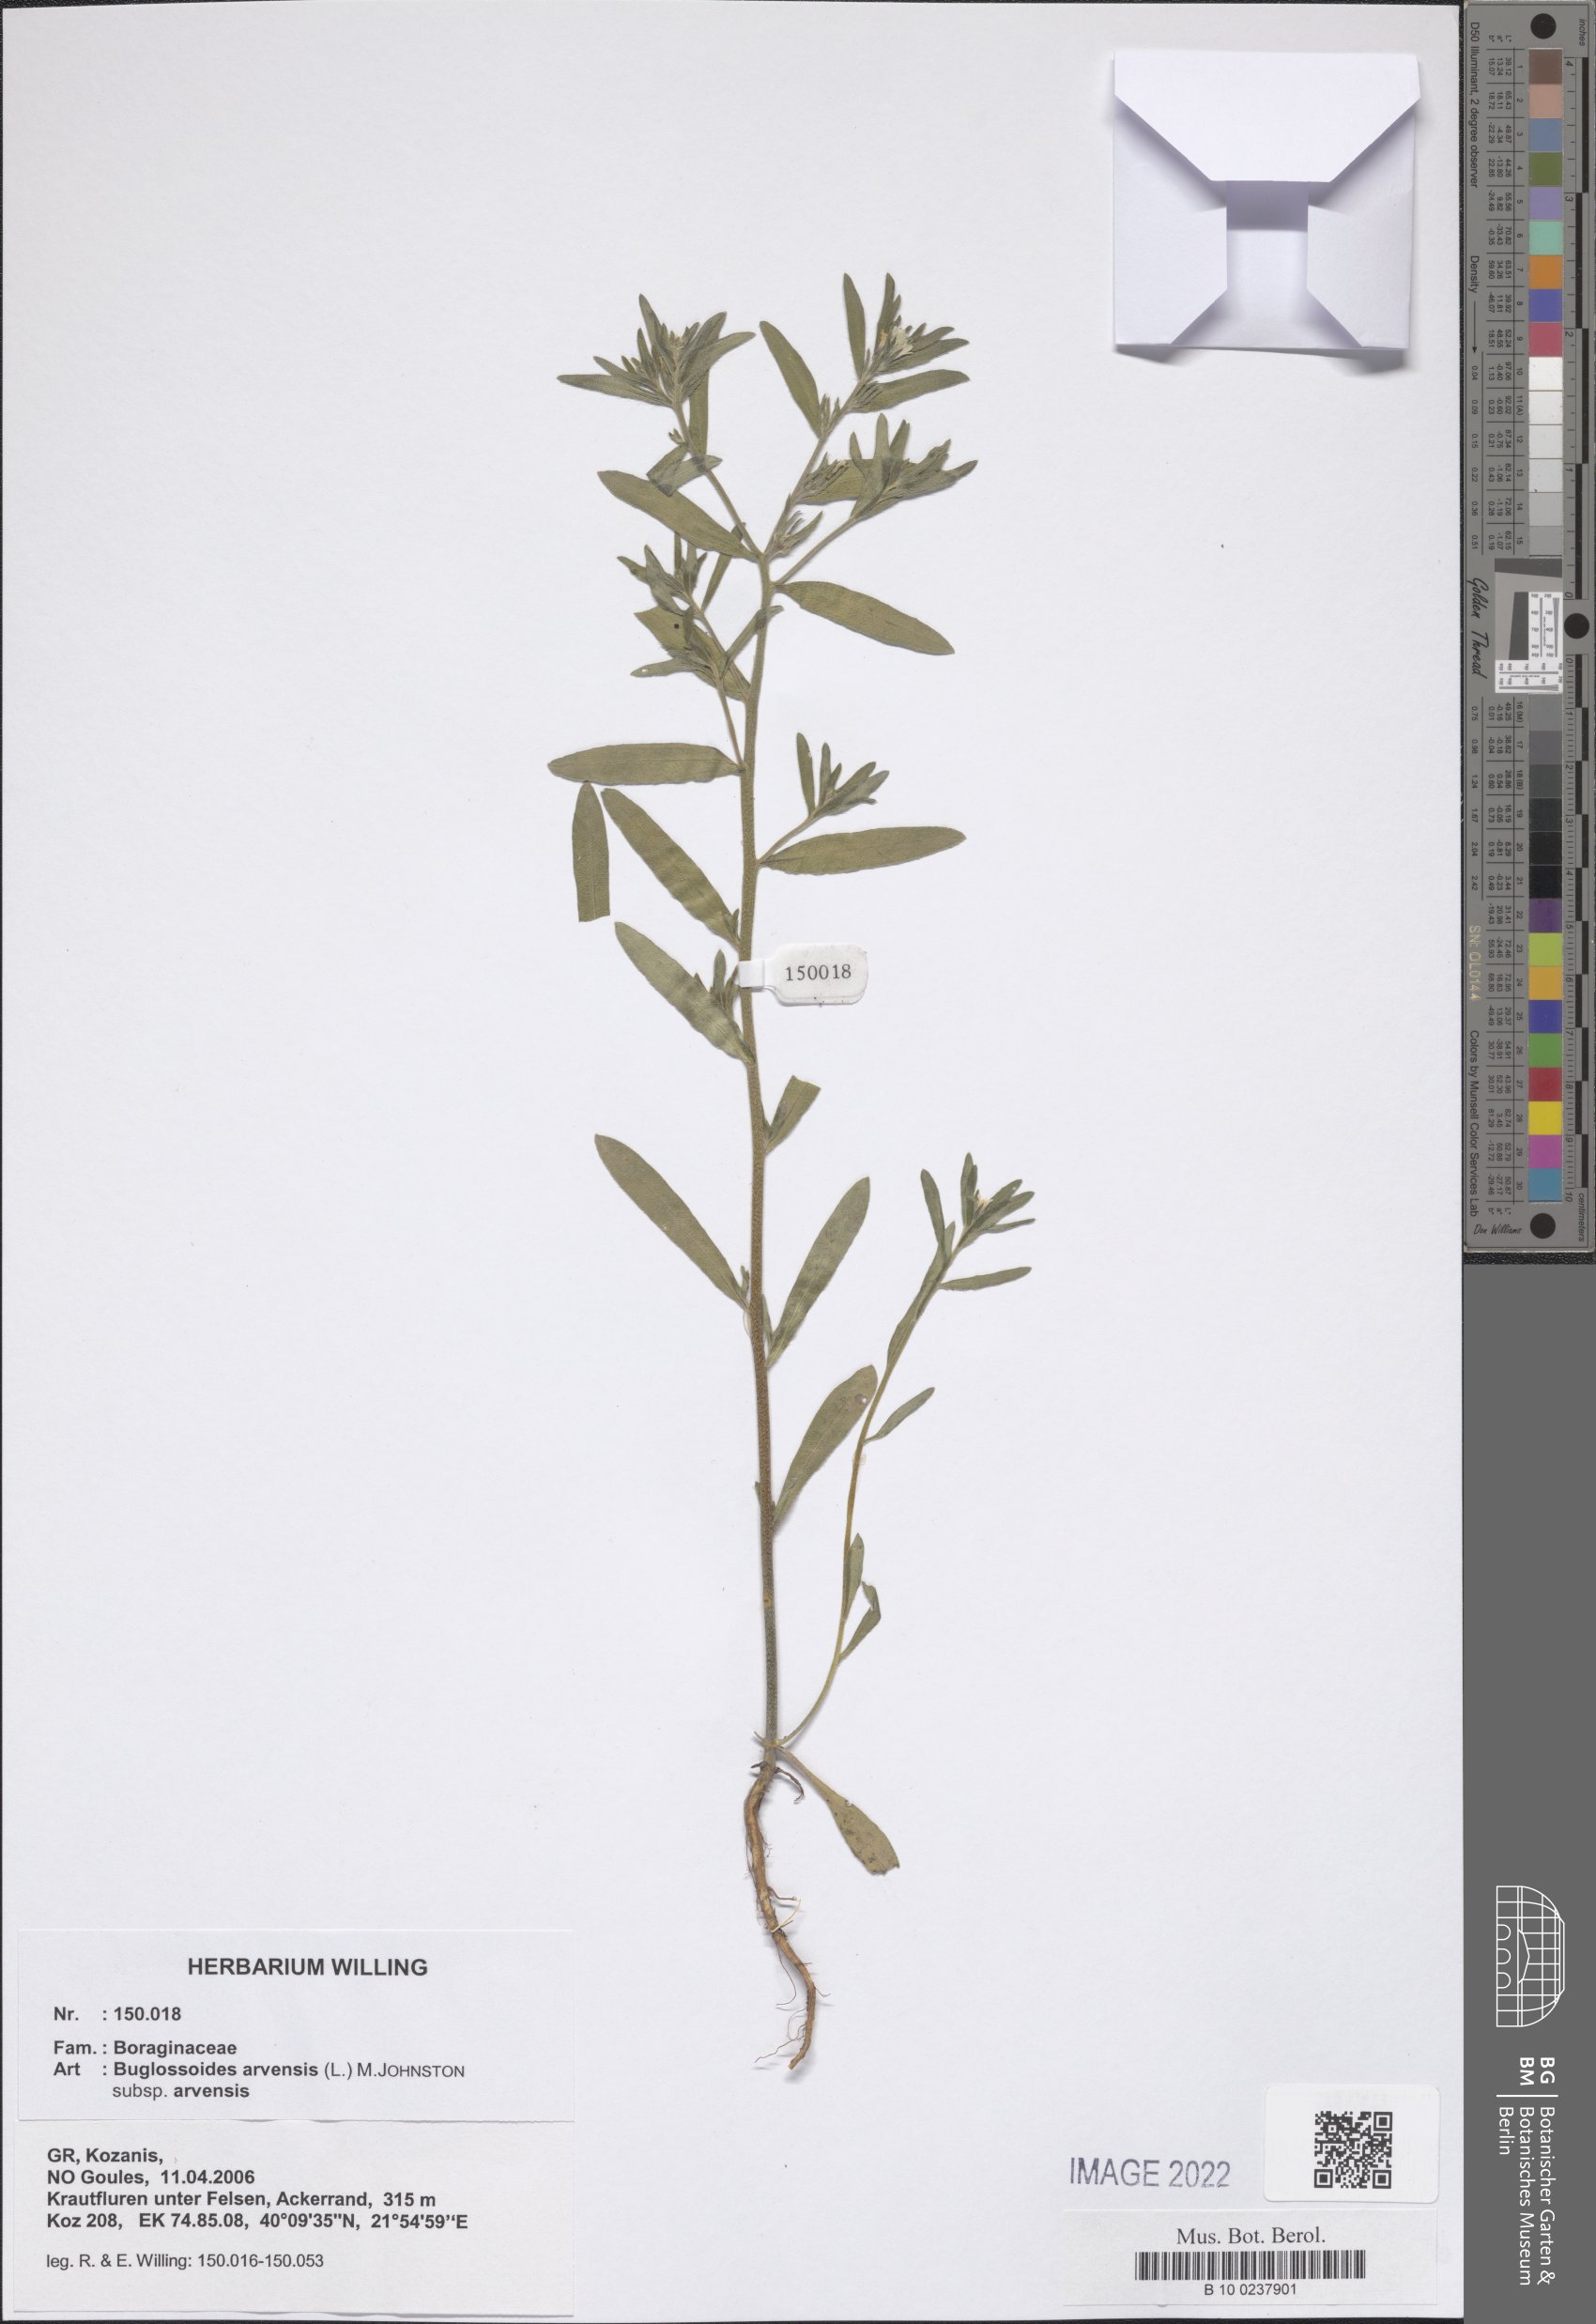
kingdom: Plantae
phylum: Tracheophyta
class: Magnoliopsida
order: Boraginales
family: Boraginaceae
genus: Buglossoides
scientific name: Buglossoides arvensis
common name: Corn gromwell
